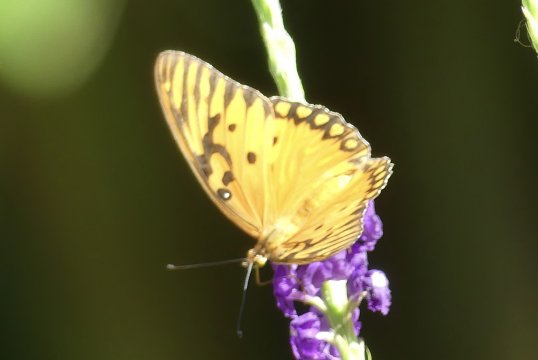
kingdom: Animalia
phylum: Arthropoda
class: Insecta
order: Lepidoptera
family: Nymphalidae
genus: Dione
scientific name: Dione vanillae
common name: Gulf Fritillary
